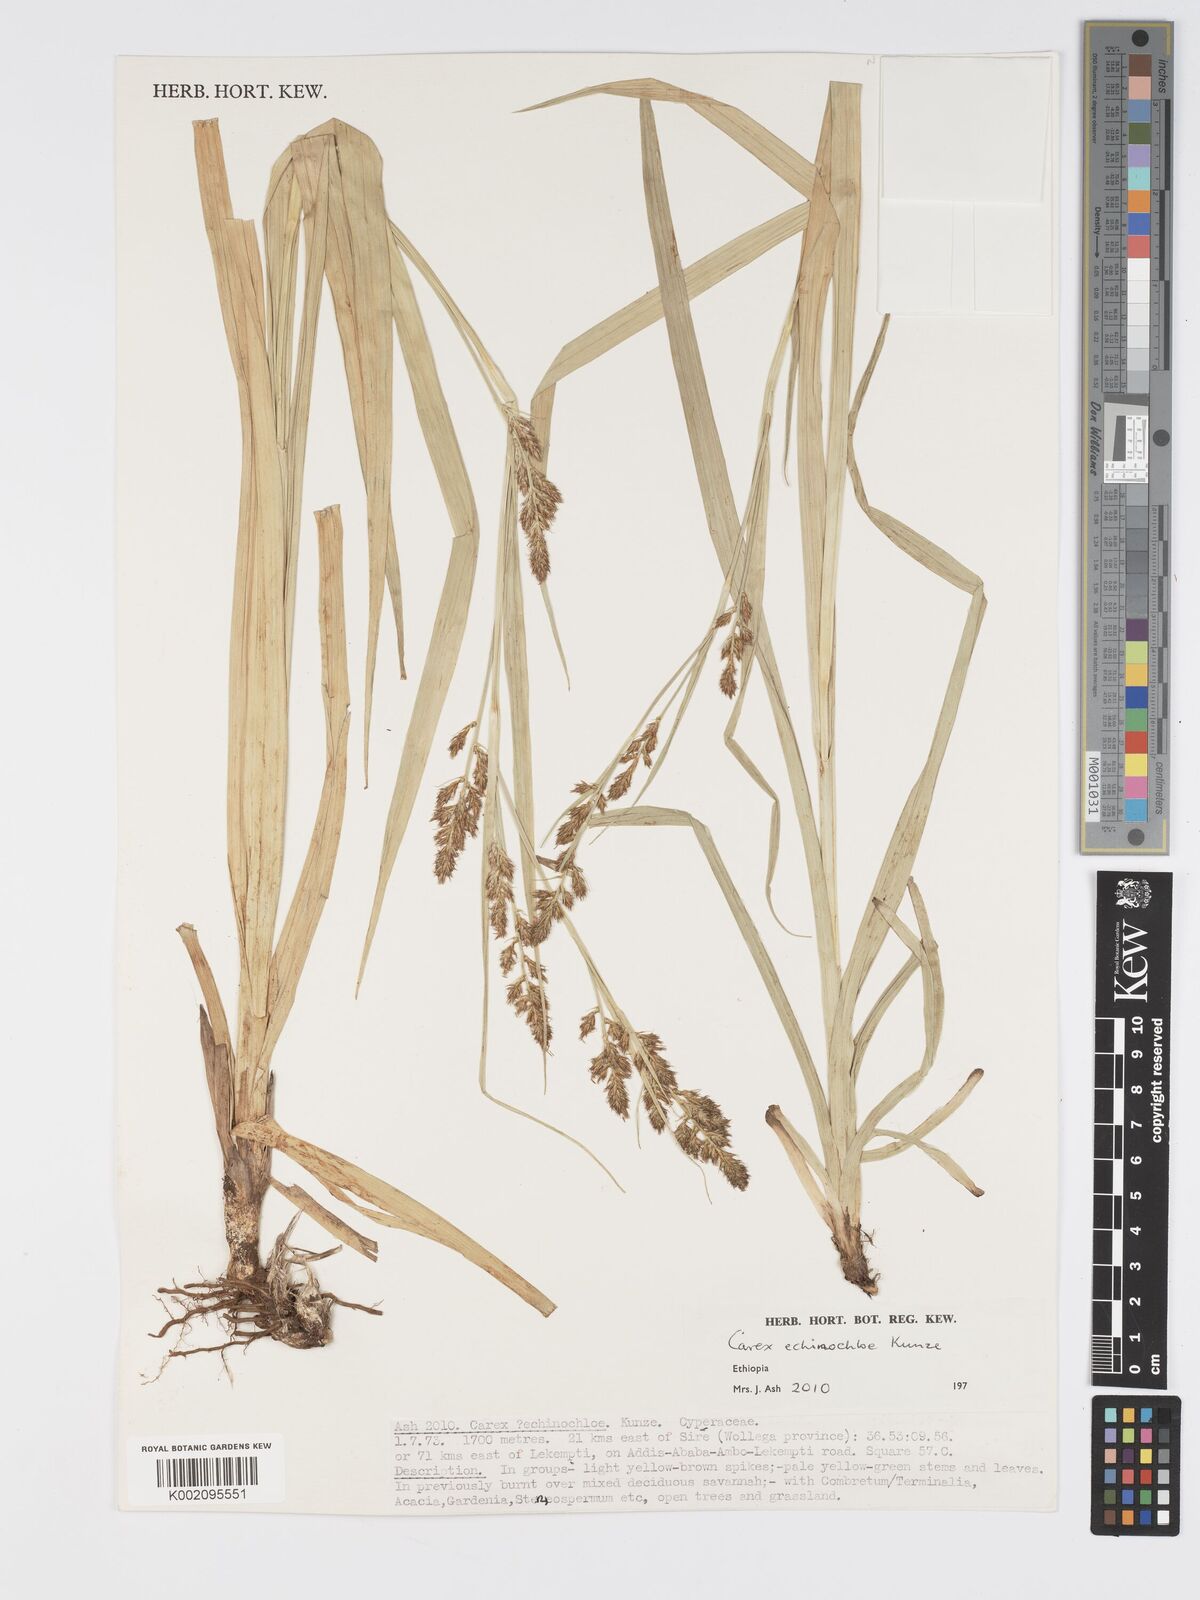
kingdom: Plantae
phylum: Tracheophyta
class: Liliopsida
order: Poales
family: Cyperaceae
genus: Carex
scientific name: Carex echinochloe
